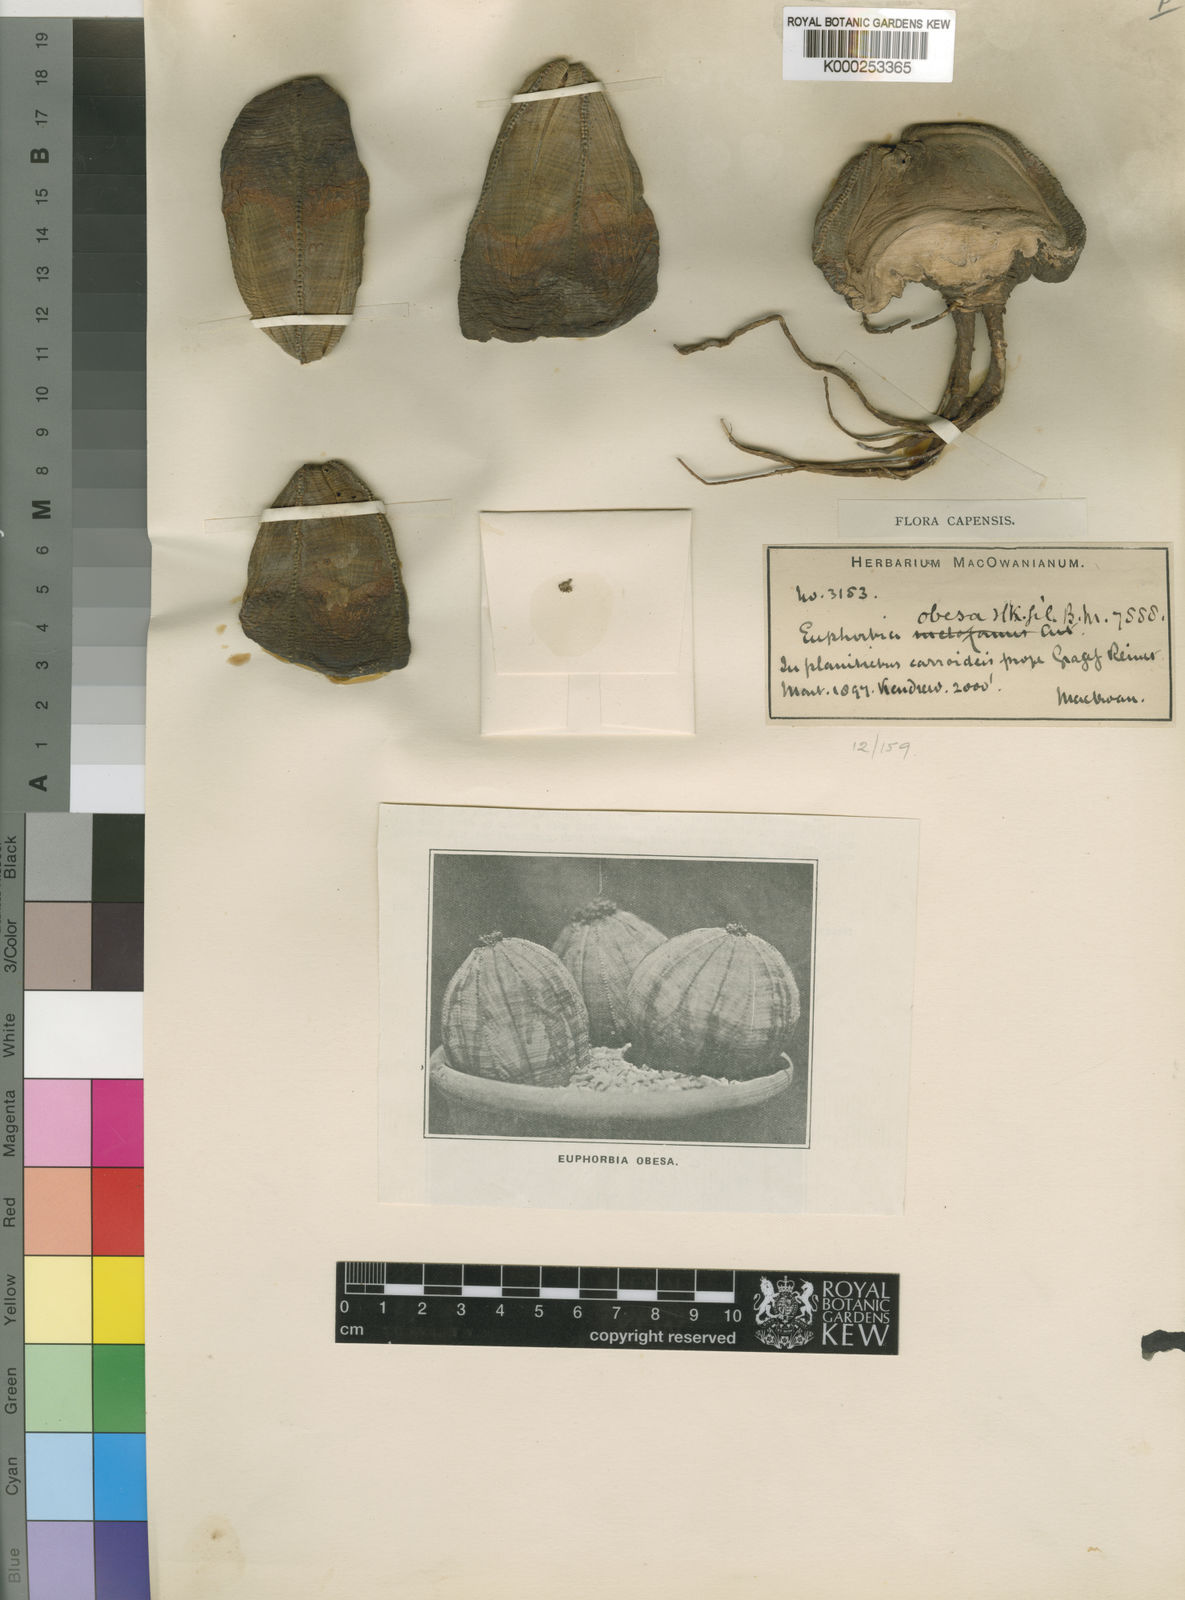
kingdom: Plantae
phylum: Tracheophyta
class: Magnoliopsida
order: Malpighiales
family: Euphorbiaceae
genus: Euphorbia
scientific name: Euphorbia obesa
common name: Gingham-golfball
